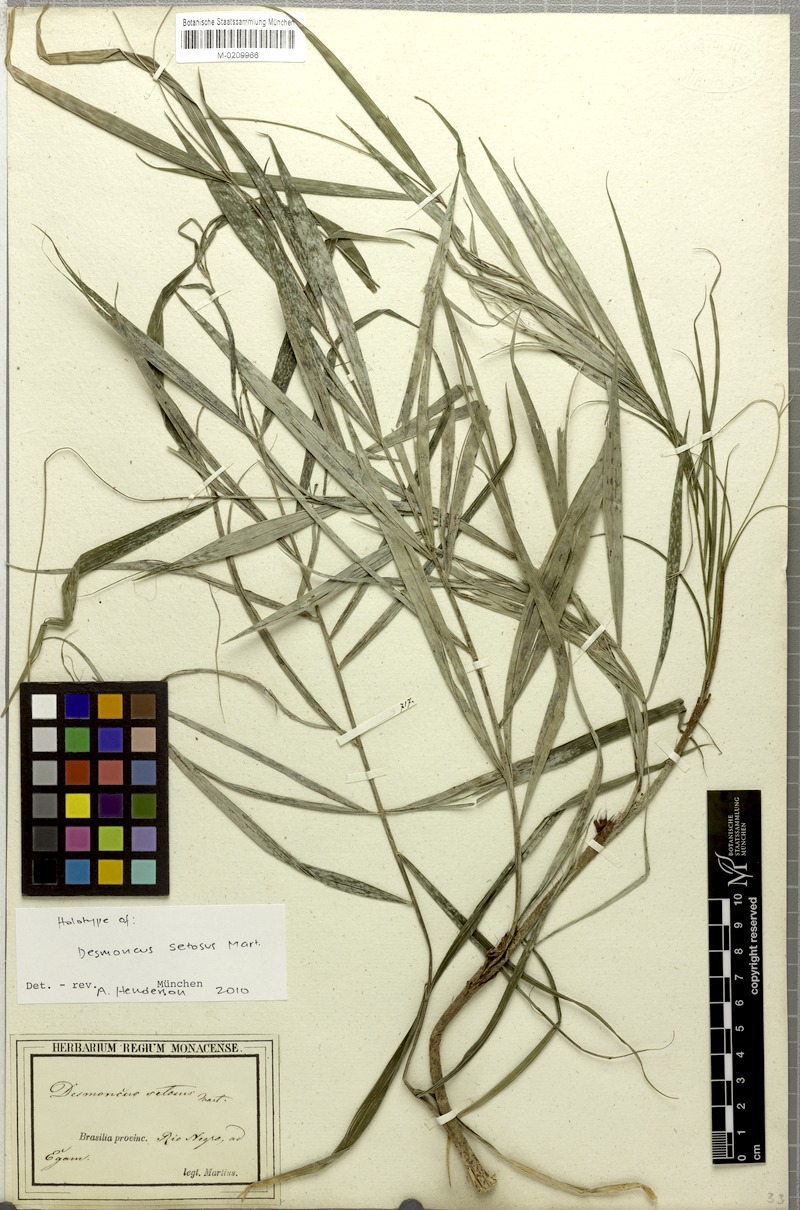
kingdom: Plantae
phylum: Tracheophyta
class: Liliopsida
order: Arecales
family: Arecaceae
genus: Desmoncus
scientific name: Desmoncus polyacanthos
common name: Suriname bramble palm
